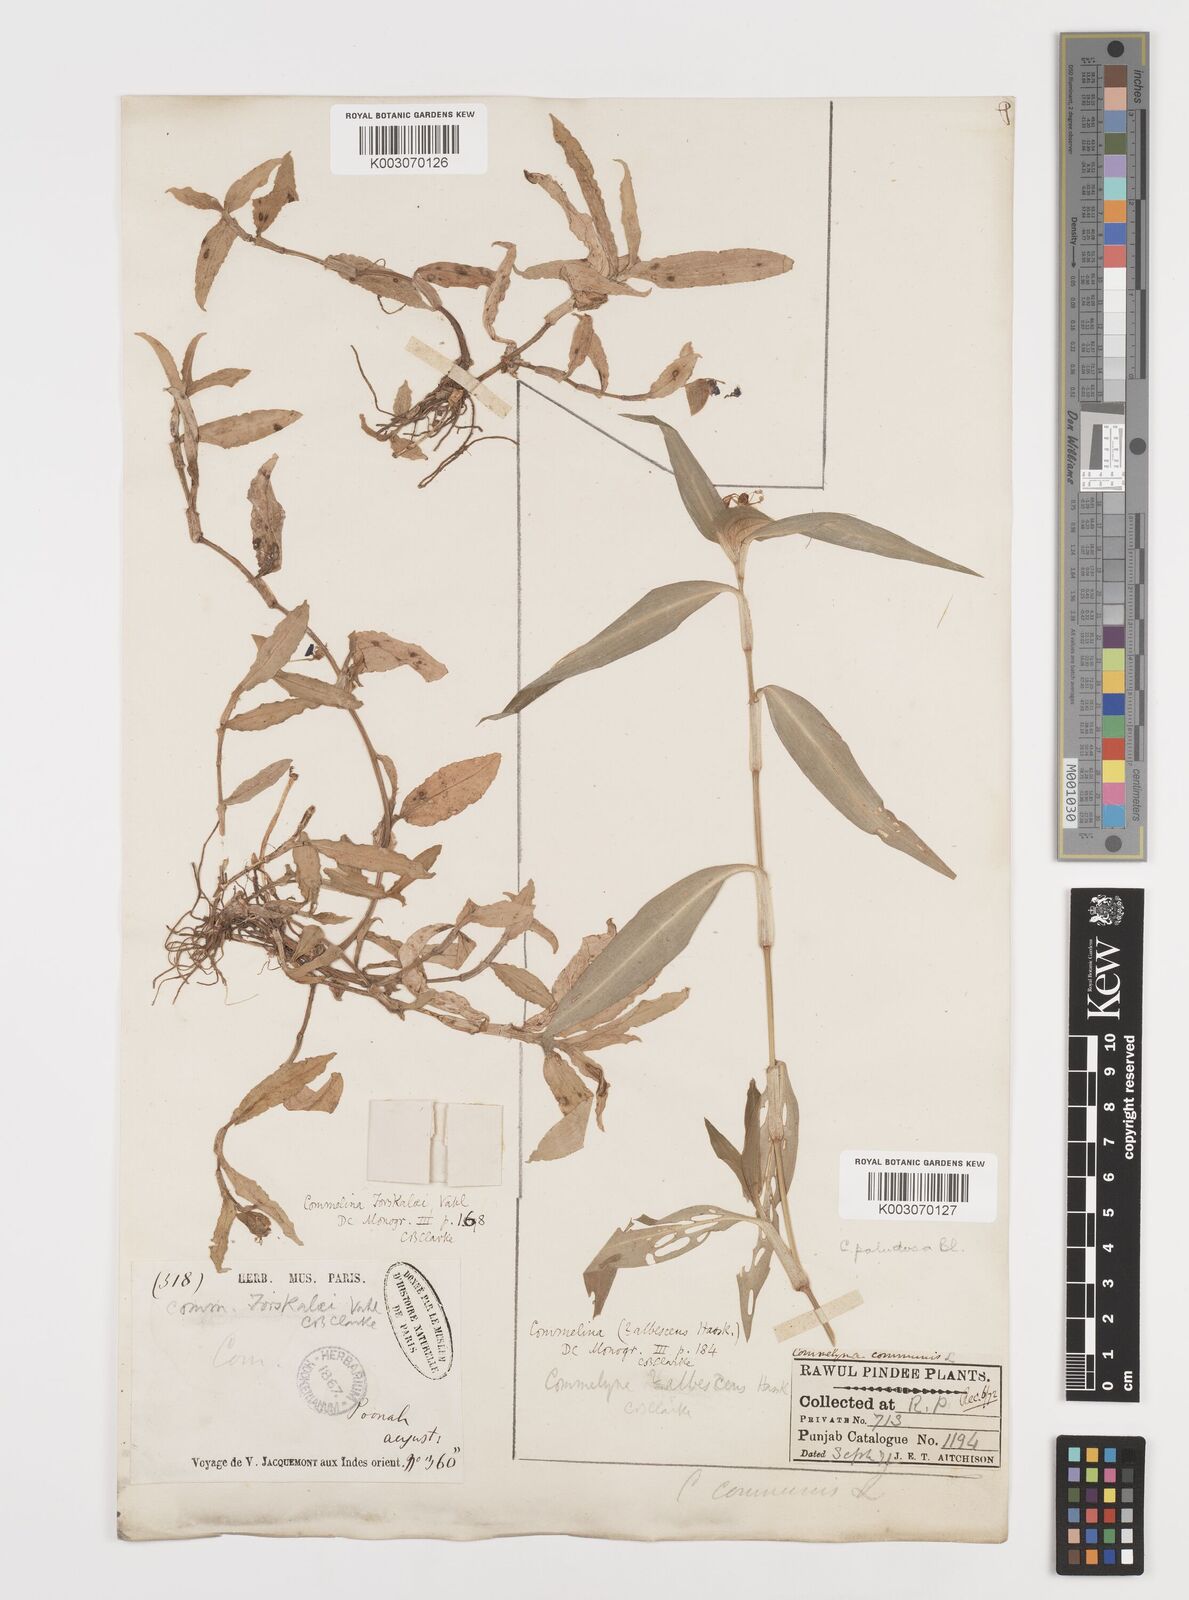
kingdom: Plantae
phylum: Tracheophyta
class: Liliopsida
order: Commelinales
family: Commelinaceae
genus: Commelina
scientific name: Commelina forskaolii
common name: Rat's ear
